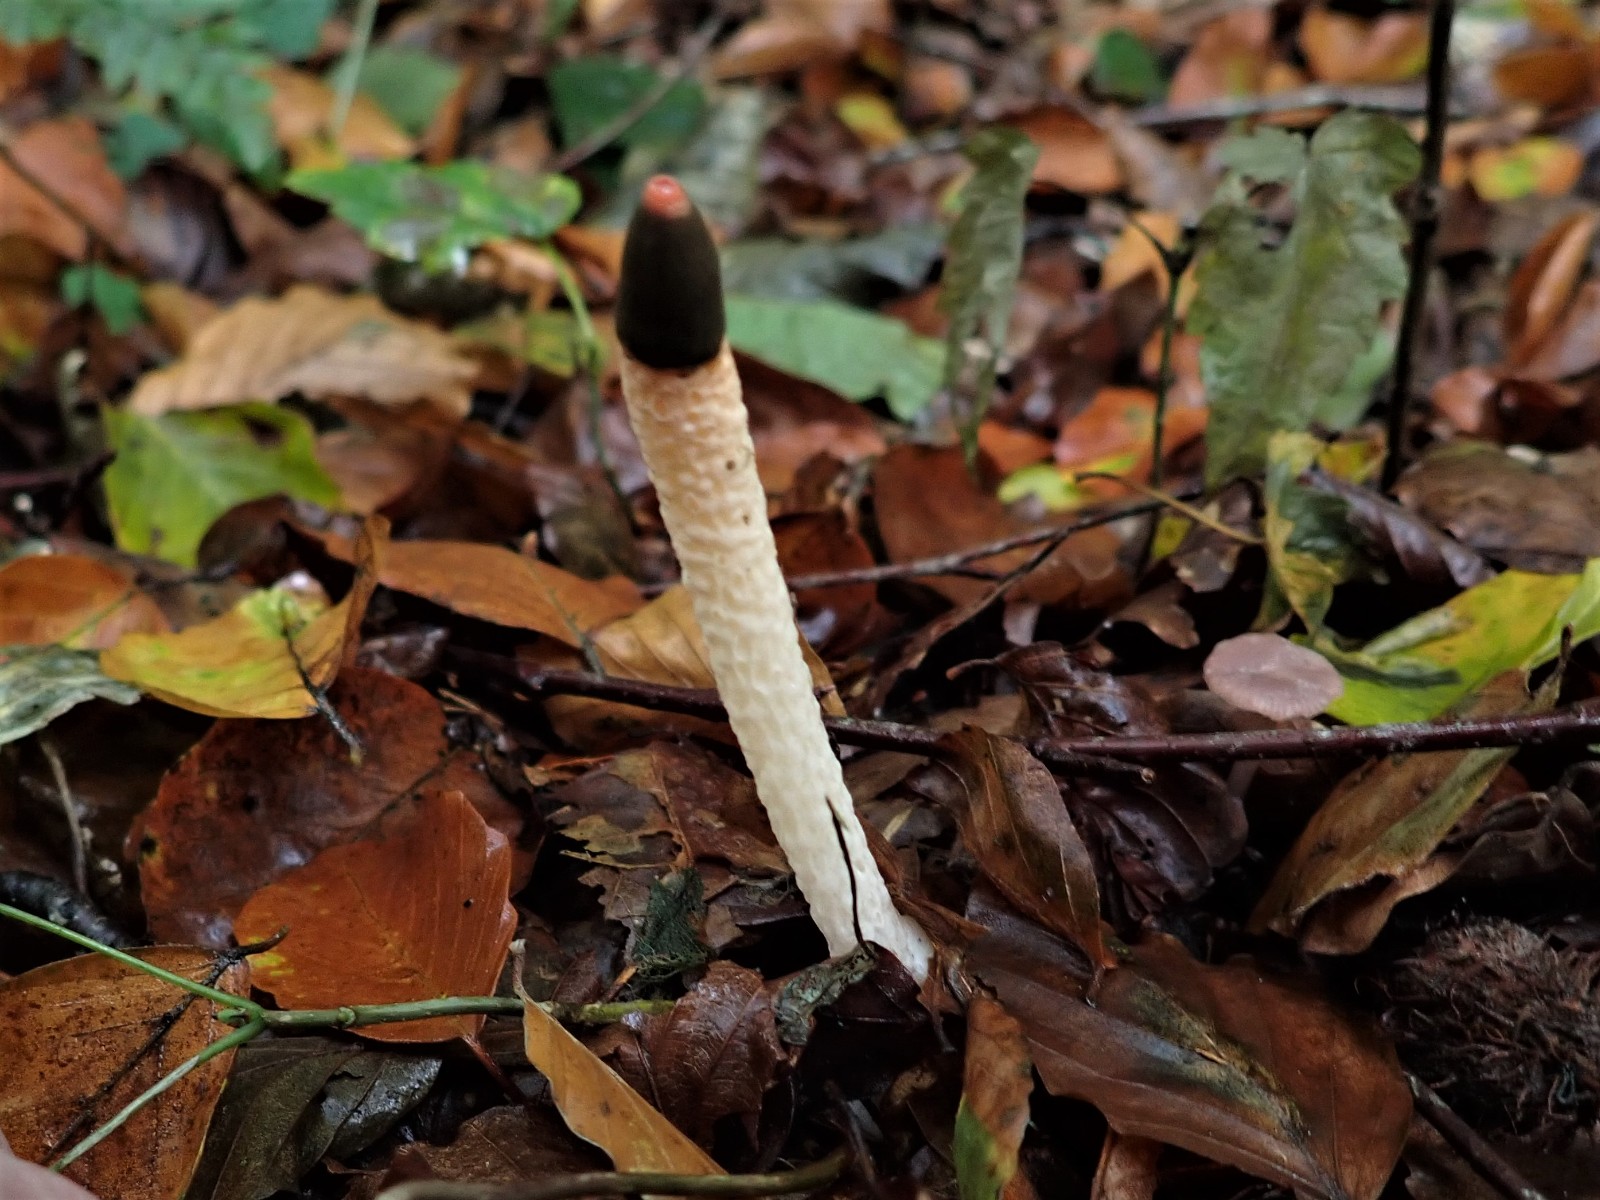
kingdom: Fungi
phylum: Basidiomycota
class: Agaricomycetes
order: Phallales
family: Phallaceae
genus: Mutinus
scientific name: Mutinus caninus
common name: hunde-stinksvamp
